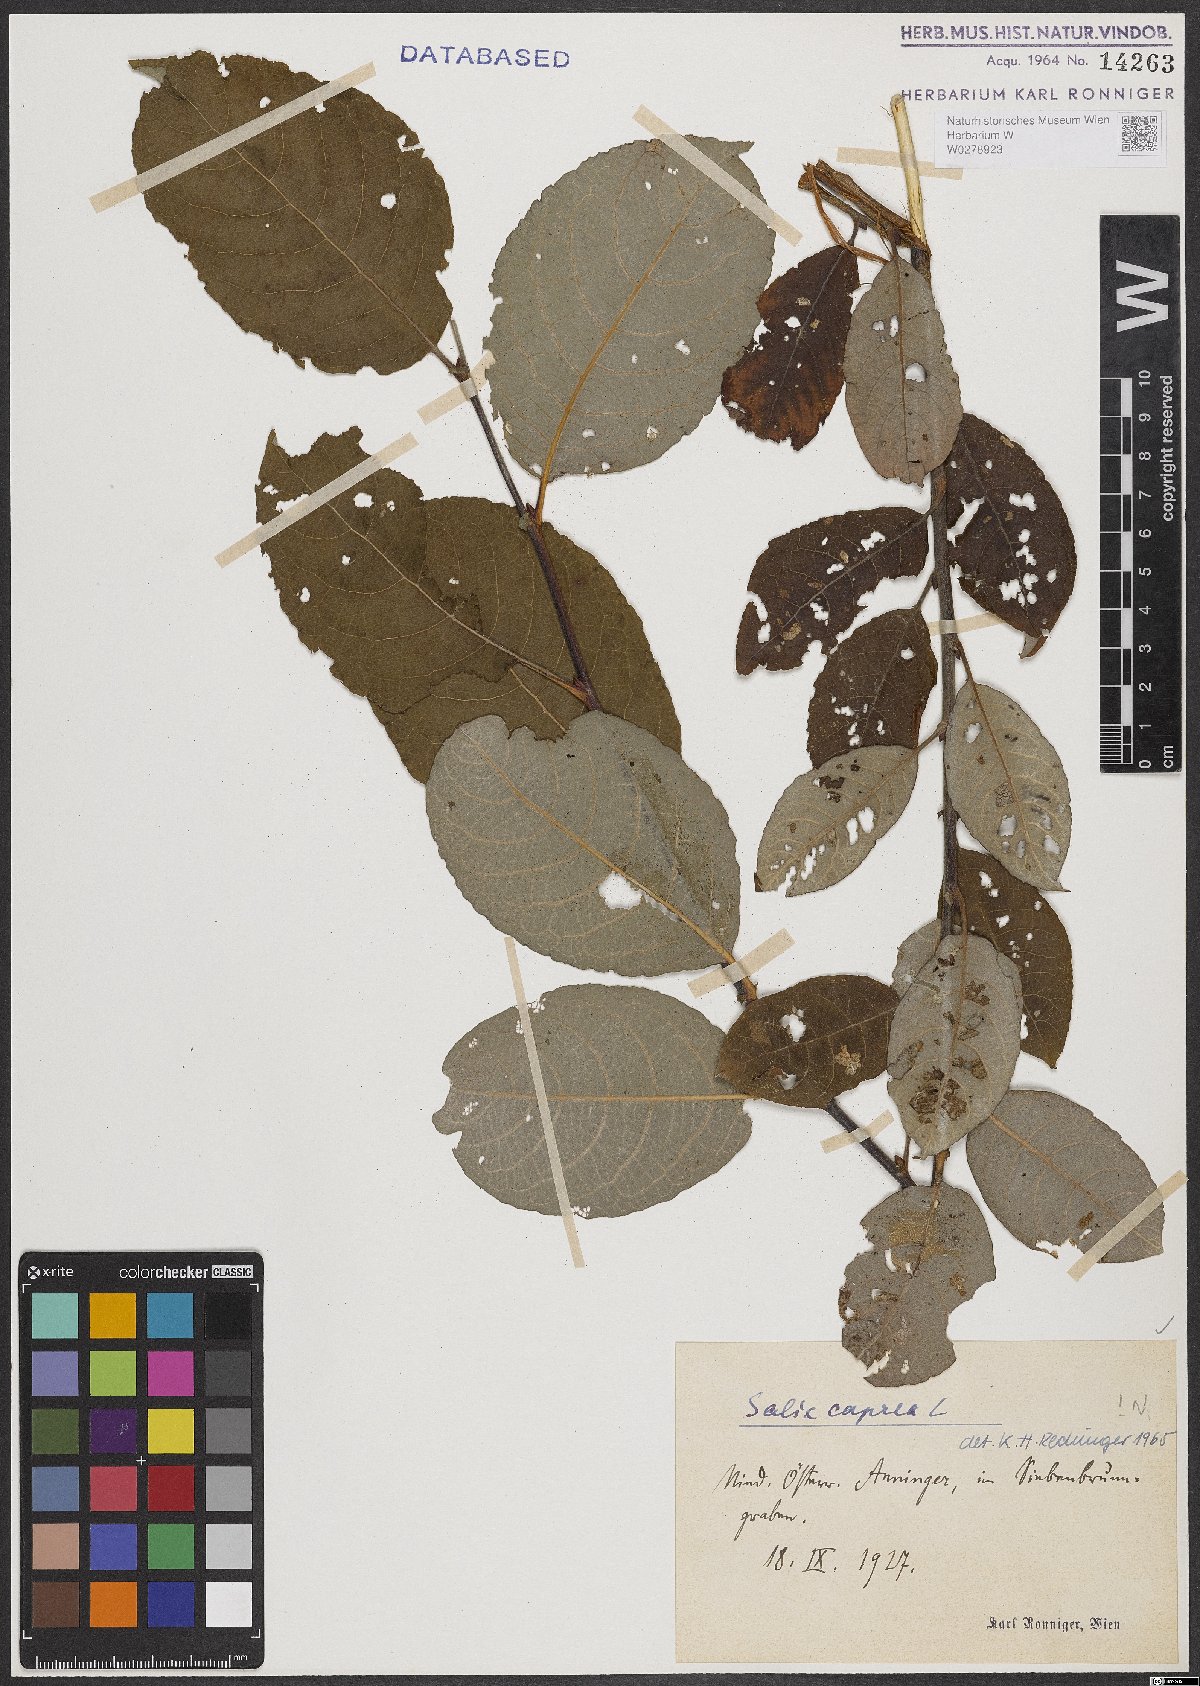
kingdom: Plantae
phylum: Tracheophyta
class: Magnoliopsida
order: Malpighiales
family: Salicaceae
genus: Salix
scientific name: Salix caprea
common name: Goat willow
